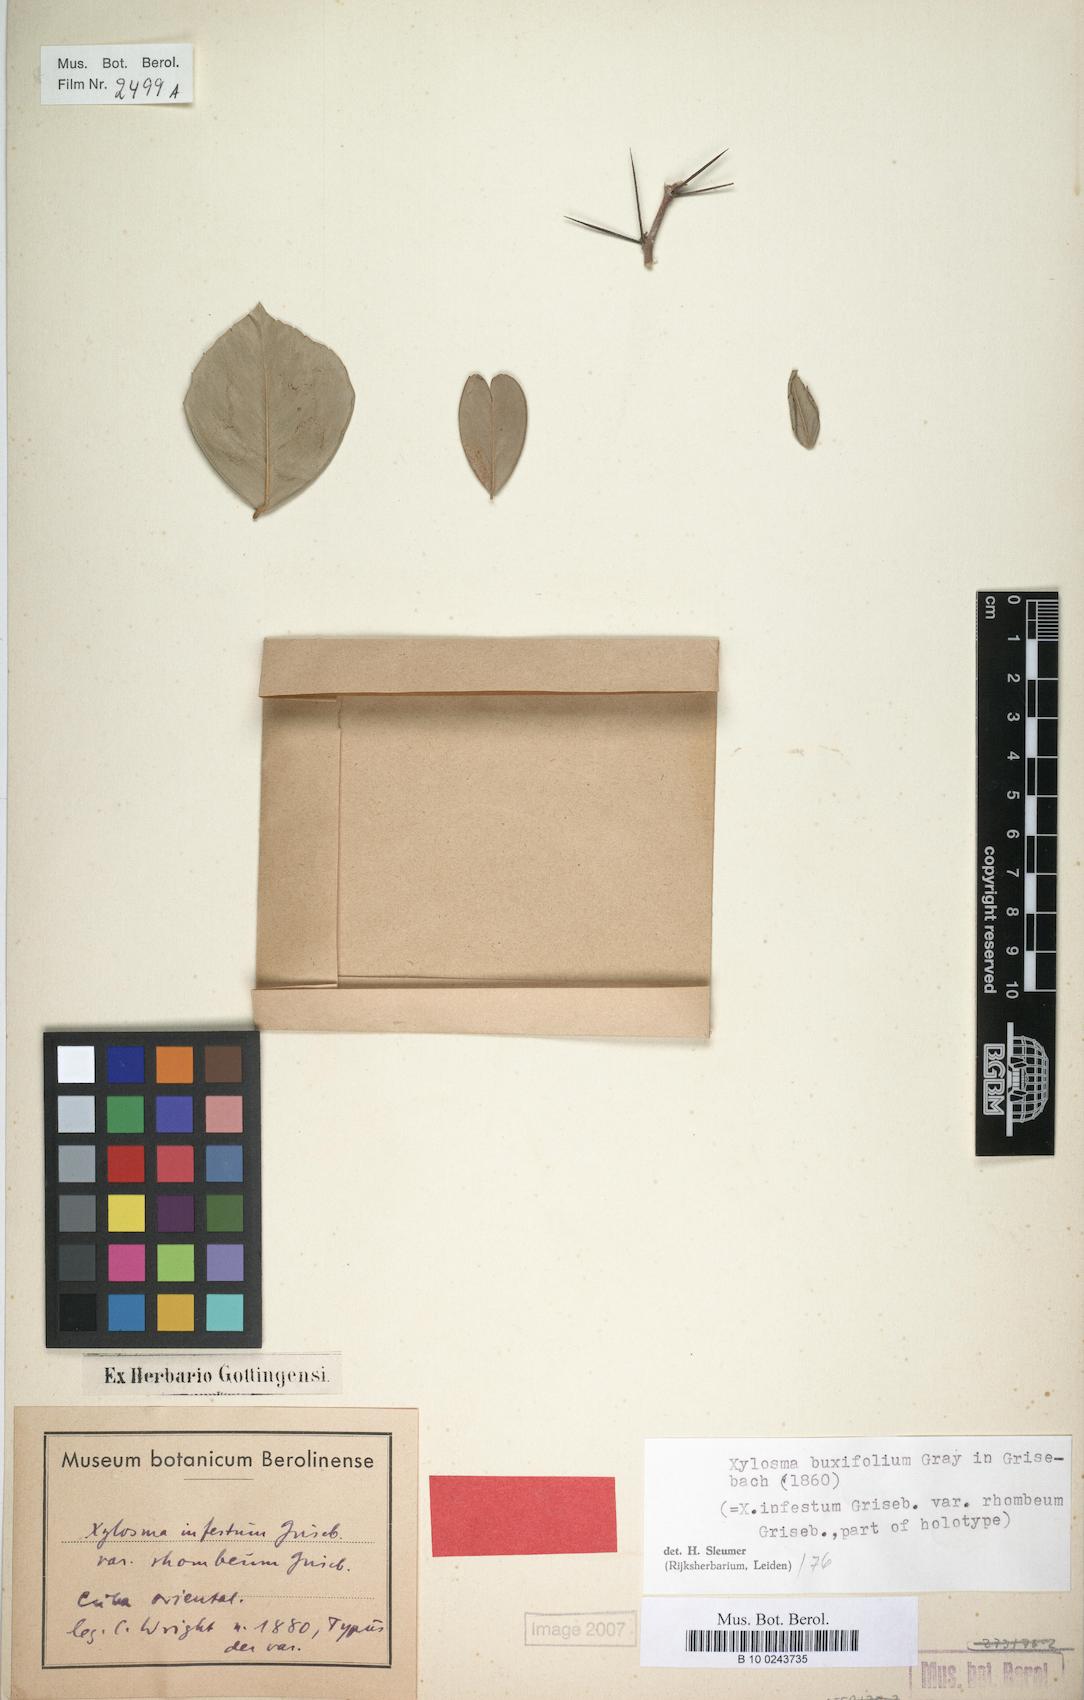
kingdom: Plantae
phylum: Tracheophyta
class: Magnoliopsida
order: Malpighiales
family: Salicaceae
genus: Xylosma
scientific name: Xylosma buxifolia
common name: Cockspur
